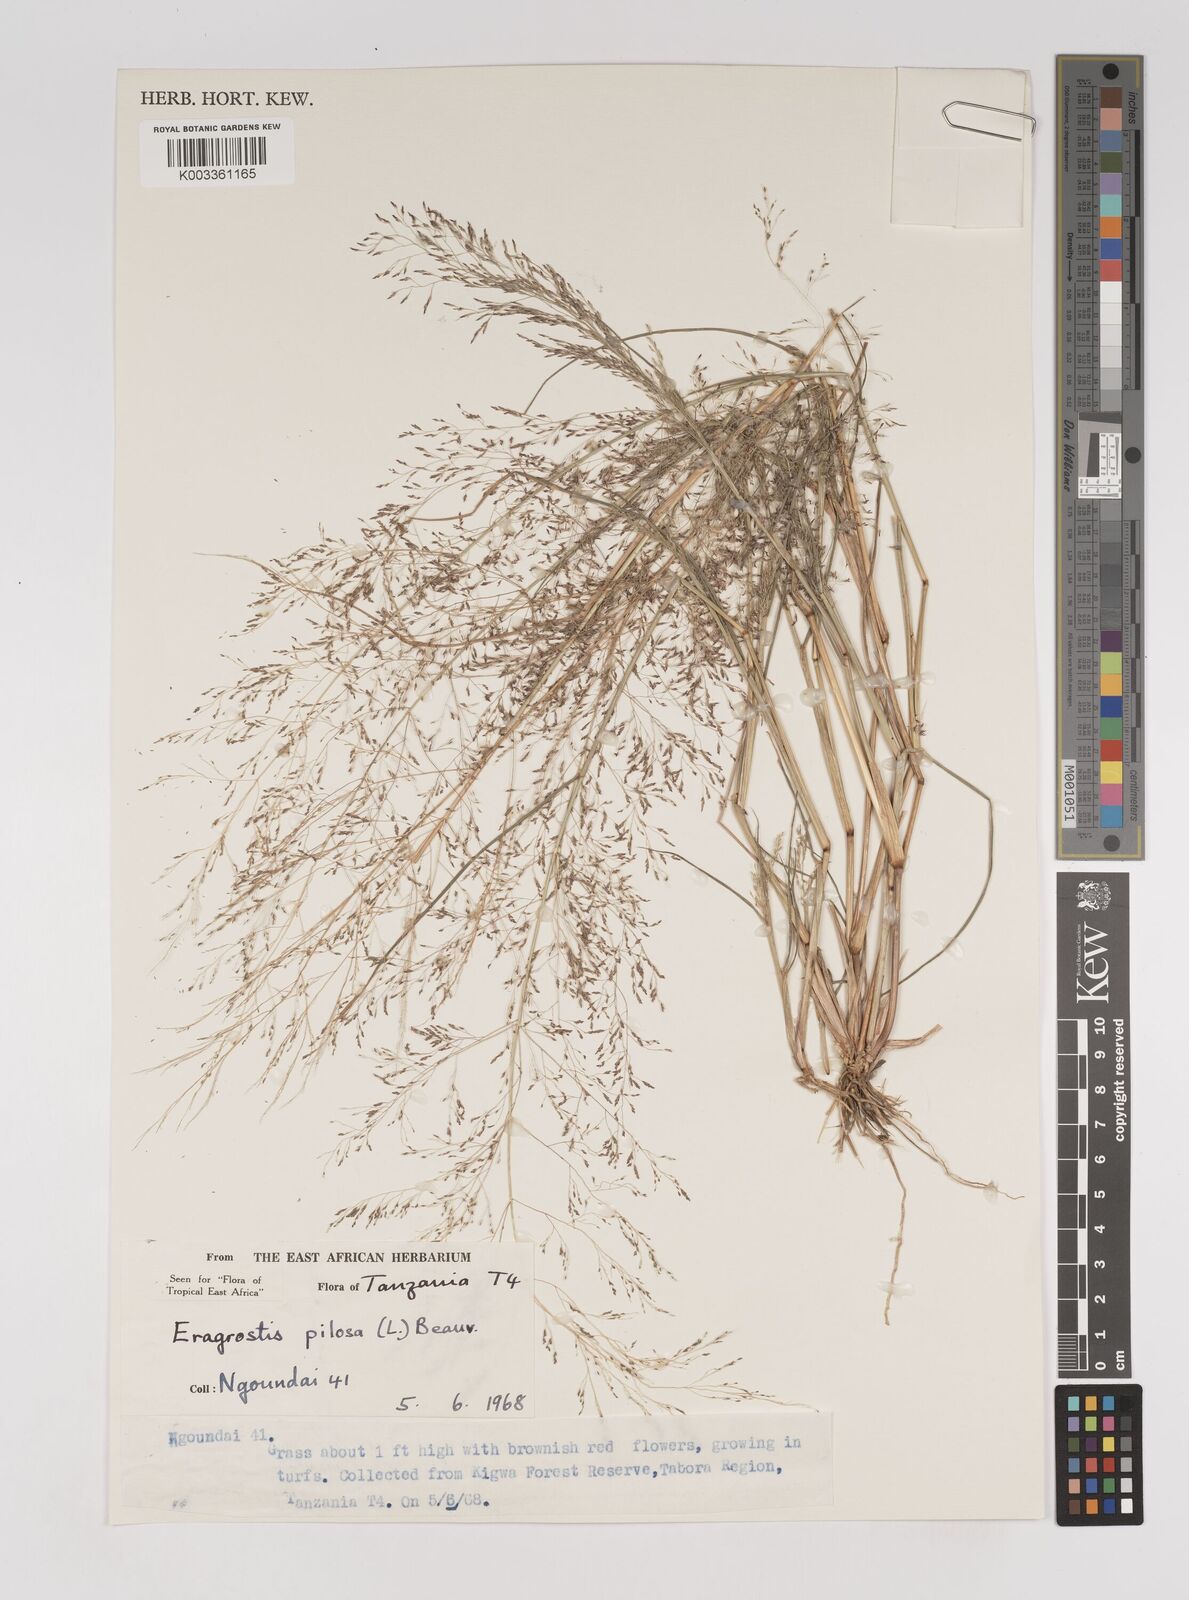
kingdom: Plantae
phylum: Tracheophyta
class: Liliopsida
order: Poales
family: Poaceae
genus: Eragrostis
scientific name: Eragrostis pilosa
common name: Indian lovegrass
